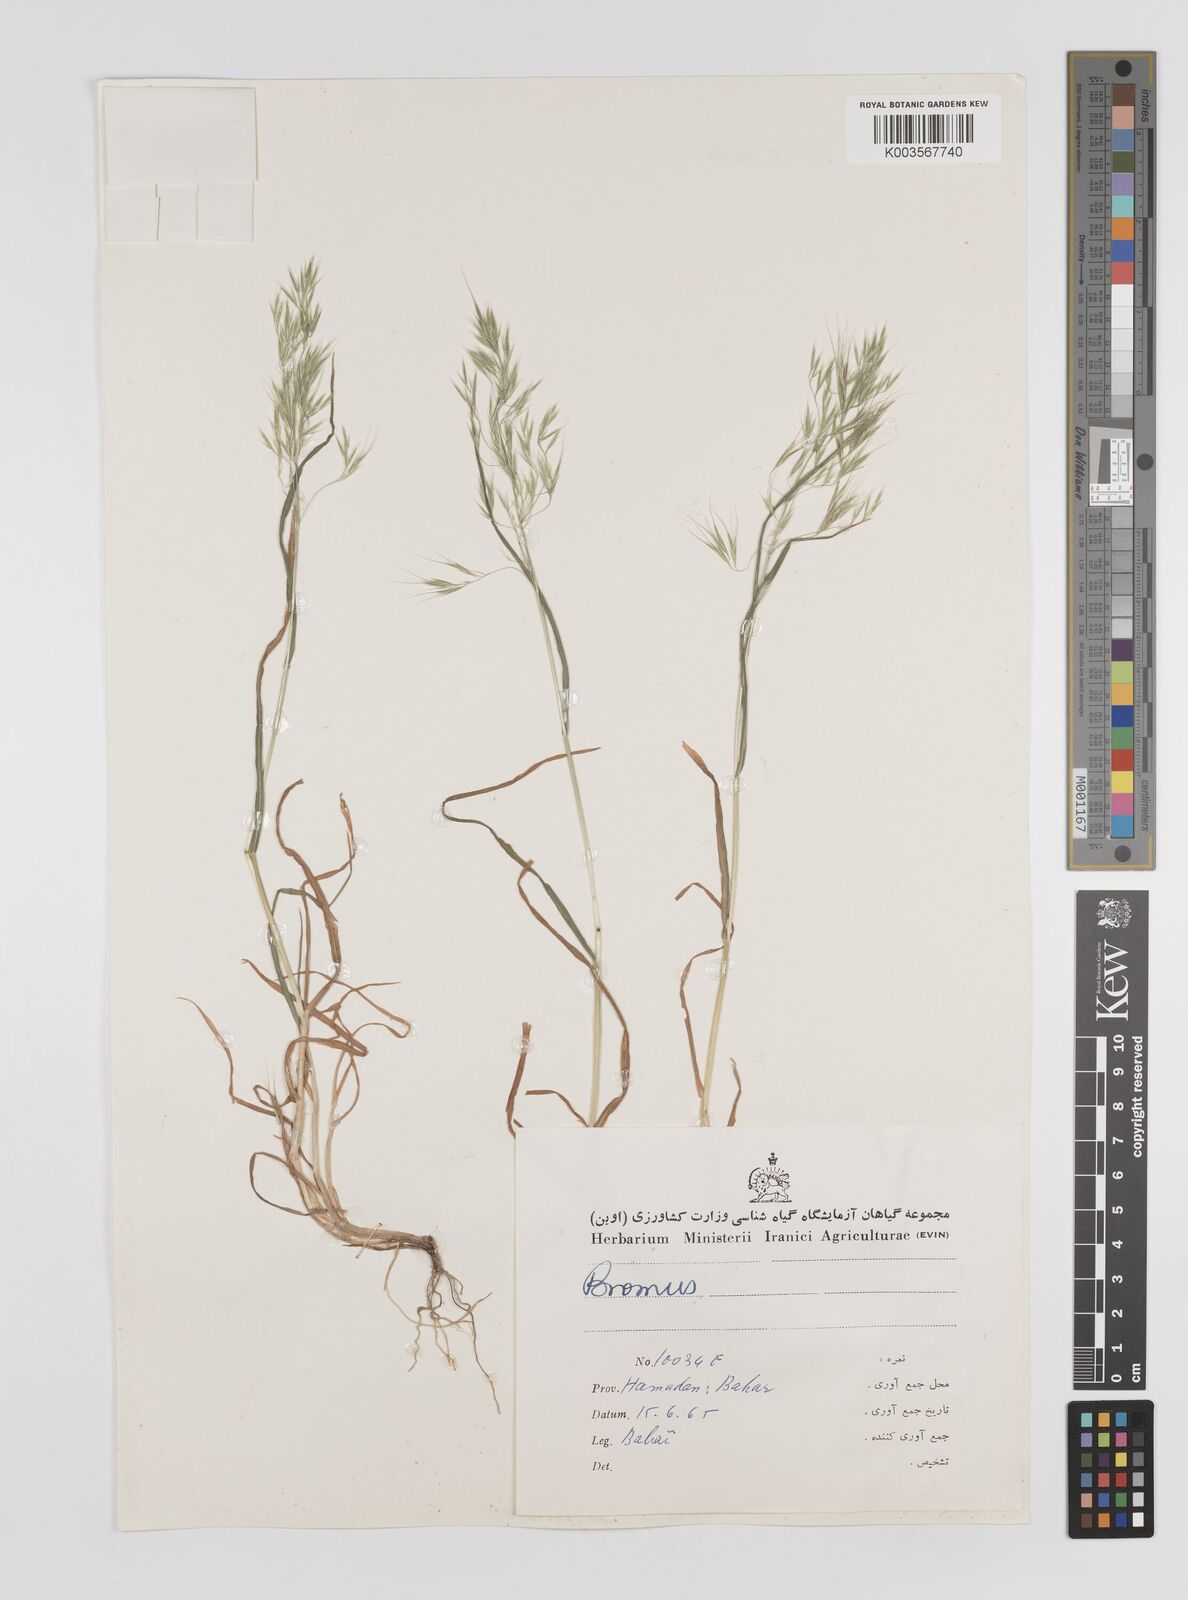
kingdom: Plantae
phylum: Tracheophyta
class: Liliopsida
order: Poales
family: Poaceae
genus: Bromus
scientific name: Bromus
